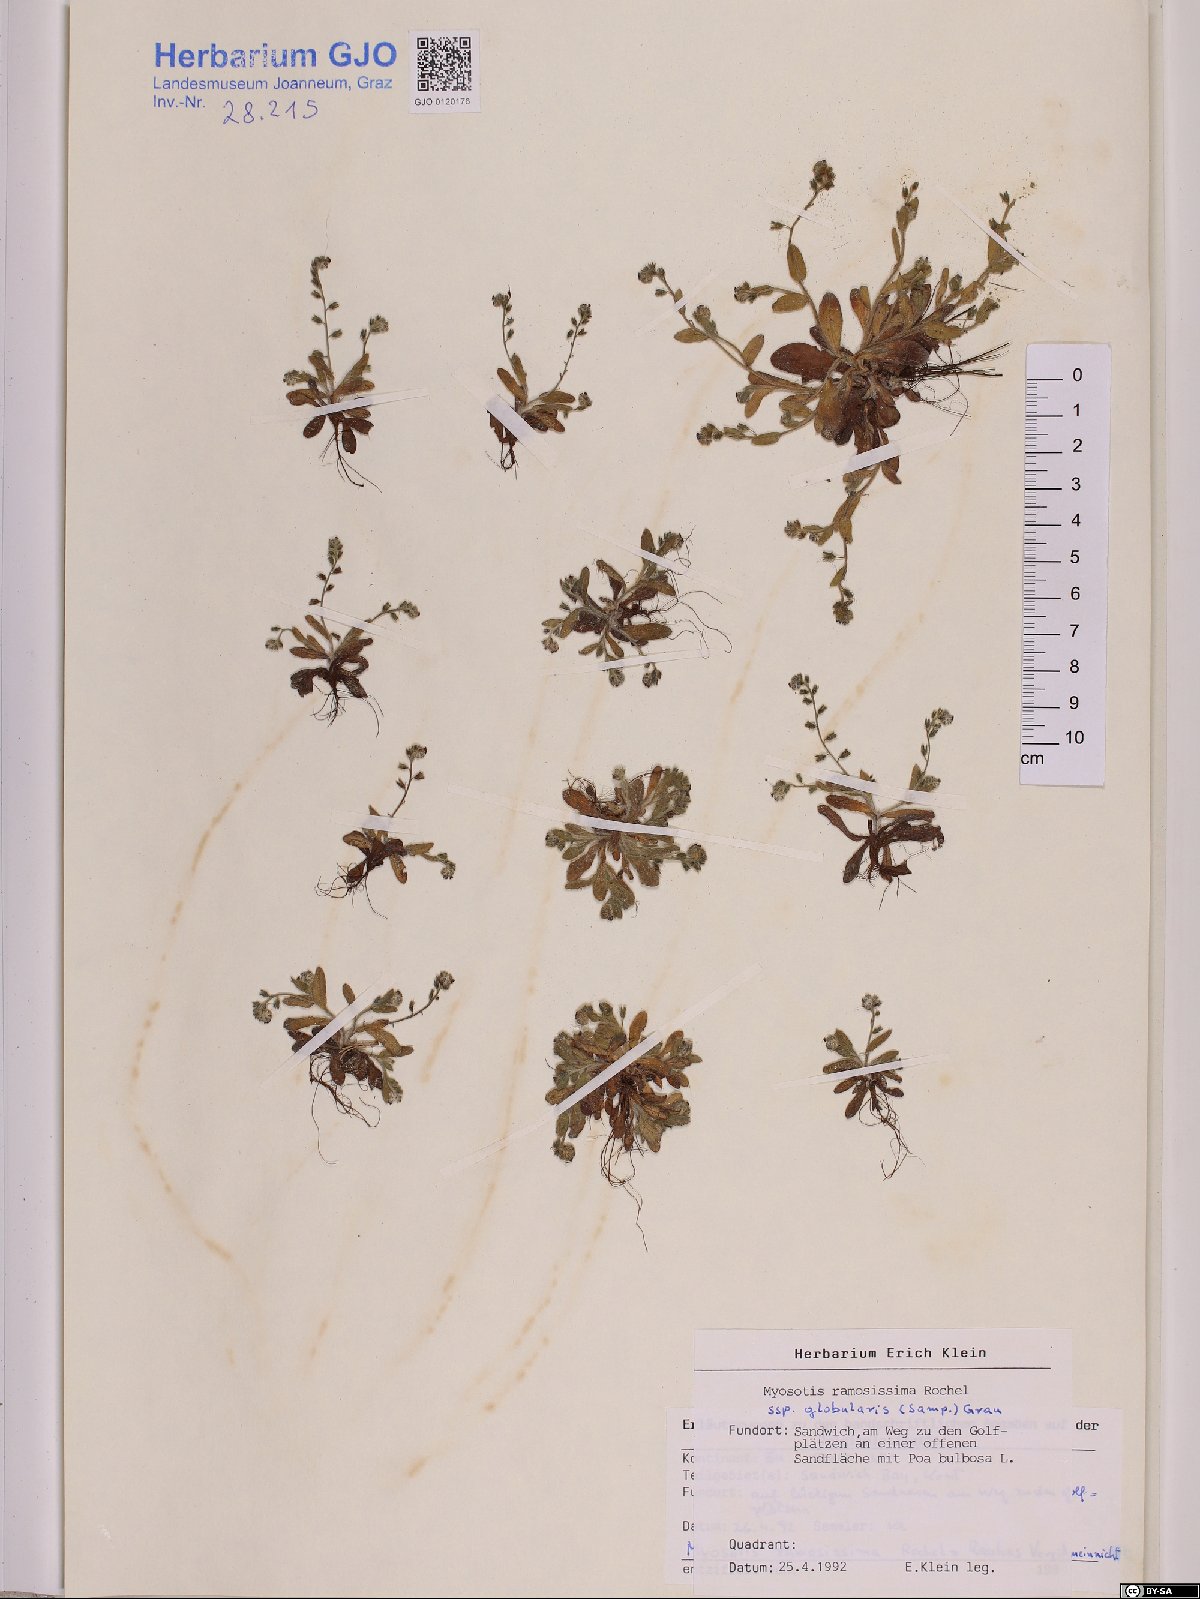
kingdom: Plantae
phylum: Tracheophyta
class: Magnoliopsida
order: Boraginales
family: Boraginaceae
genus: Myosotis
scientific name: Myosotis ramosissima
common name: Early forget-me-not
